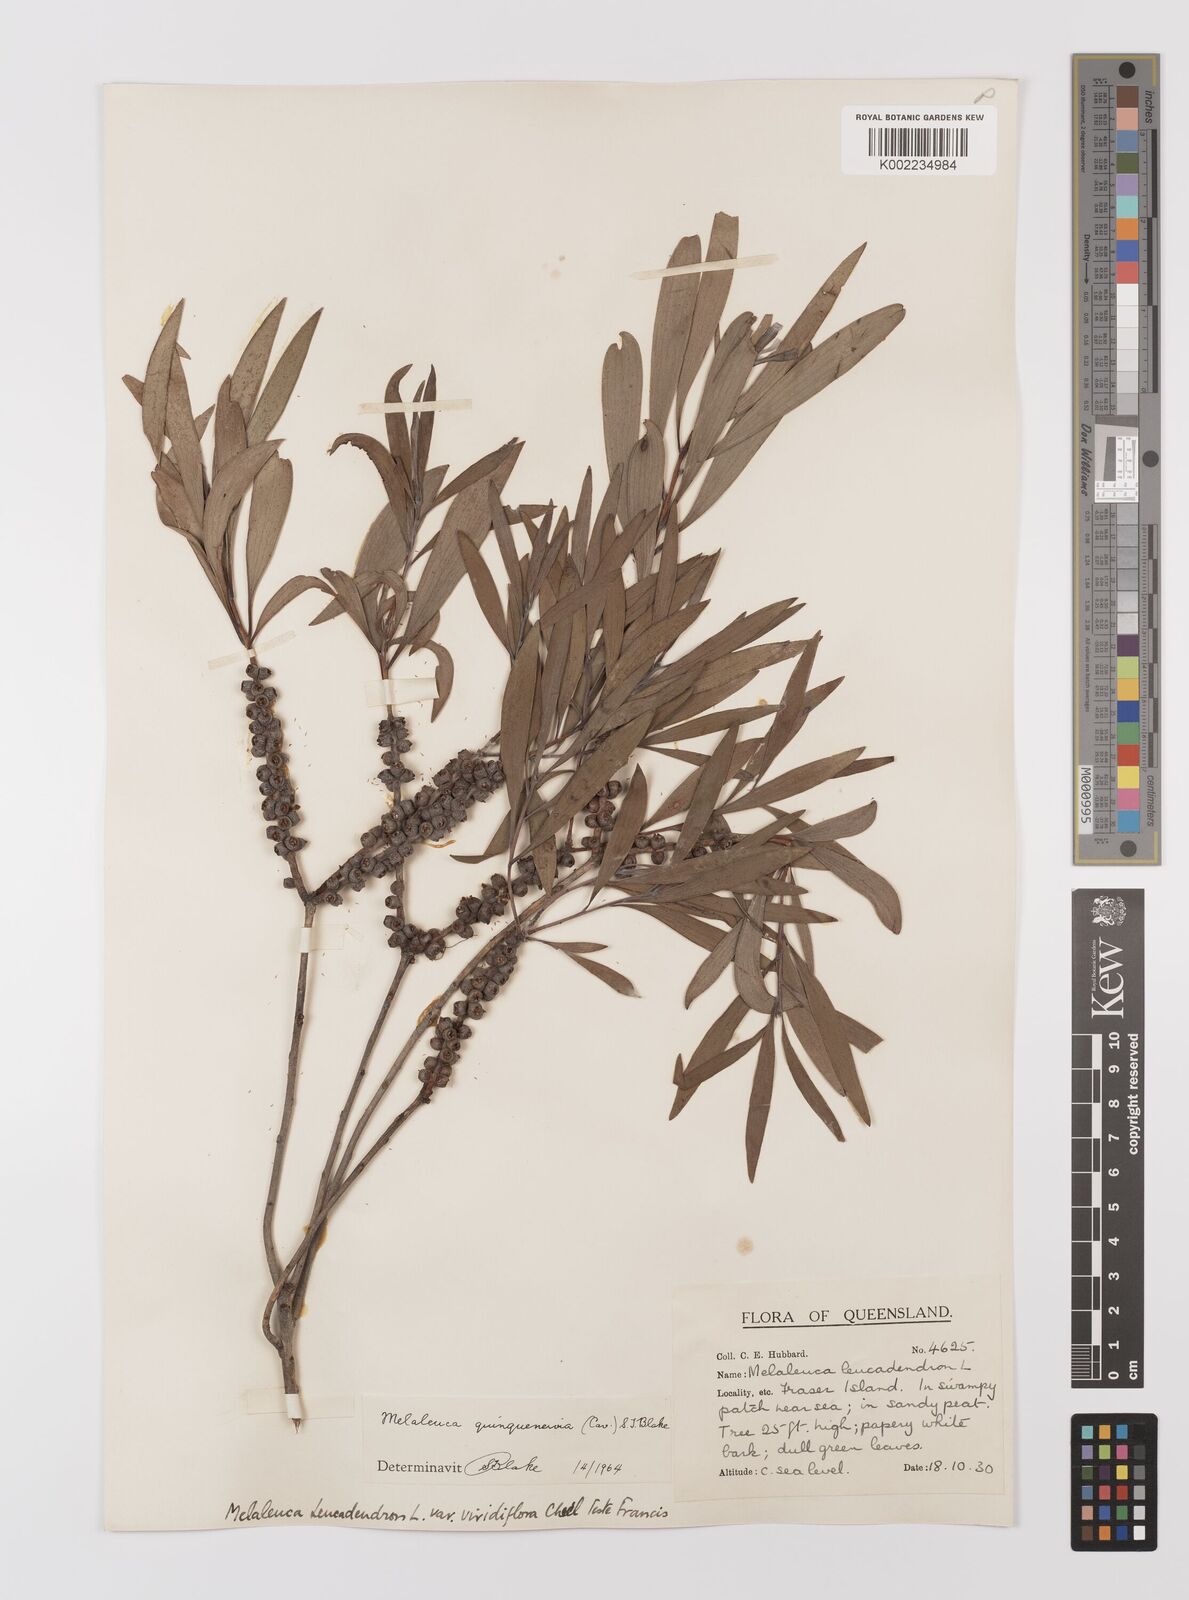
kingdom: Plantae
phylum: Tracheophyta
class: Magnoliopsida
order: Myrtales
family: Myrtaceae
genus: Melaleuca
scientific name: Melaleuca quinquenervia
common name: Punktree
